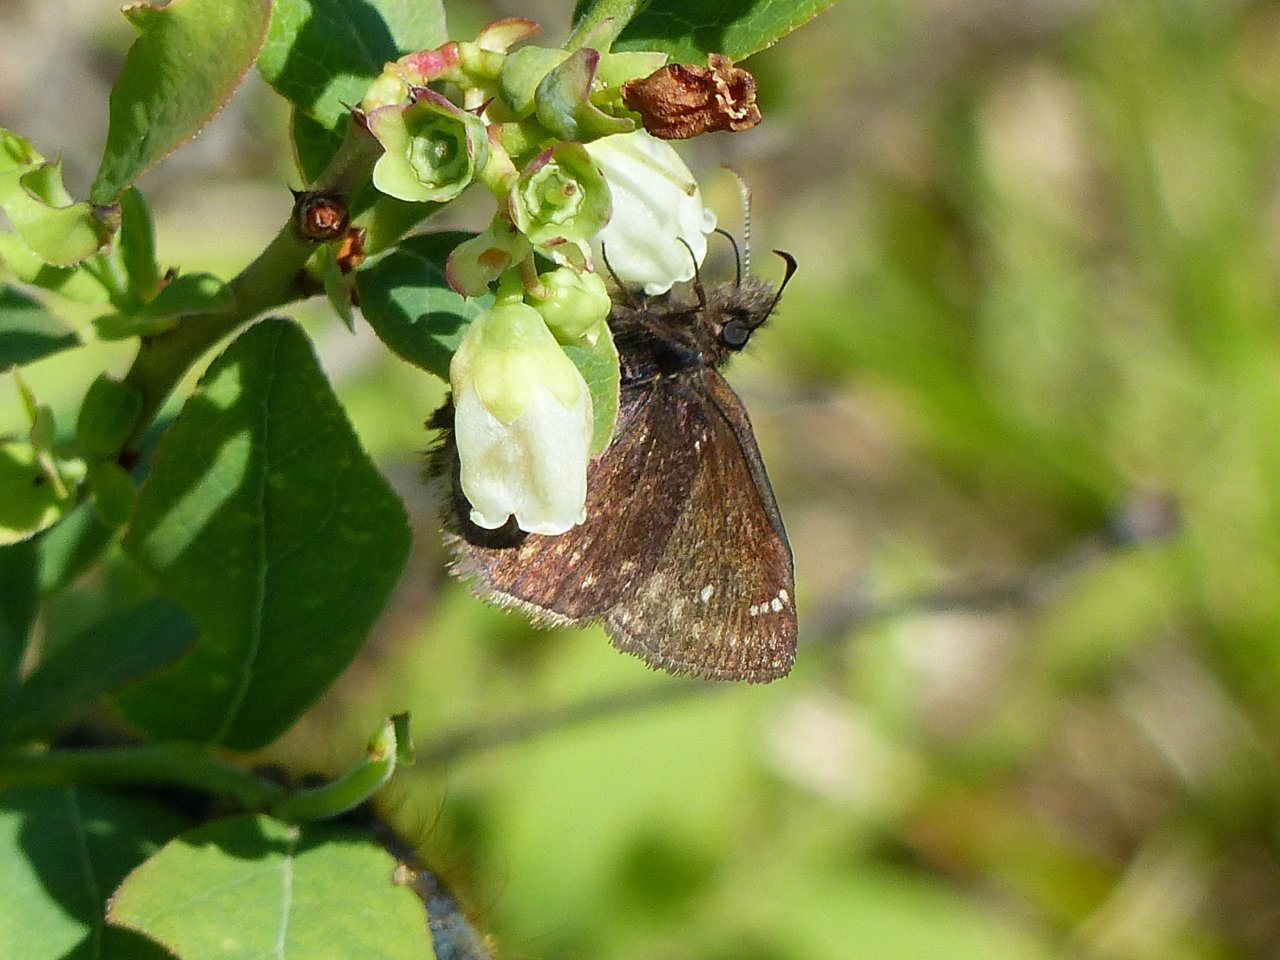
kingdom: Animalia
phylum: Arthropoda
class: Insecta
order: Lepidoptera
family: Hesperiidae
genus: Gesta
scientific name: Gesta
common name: Columbine Duskywing
